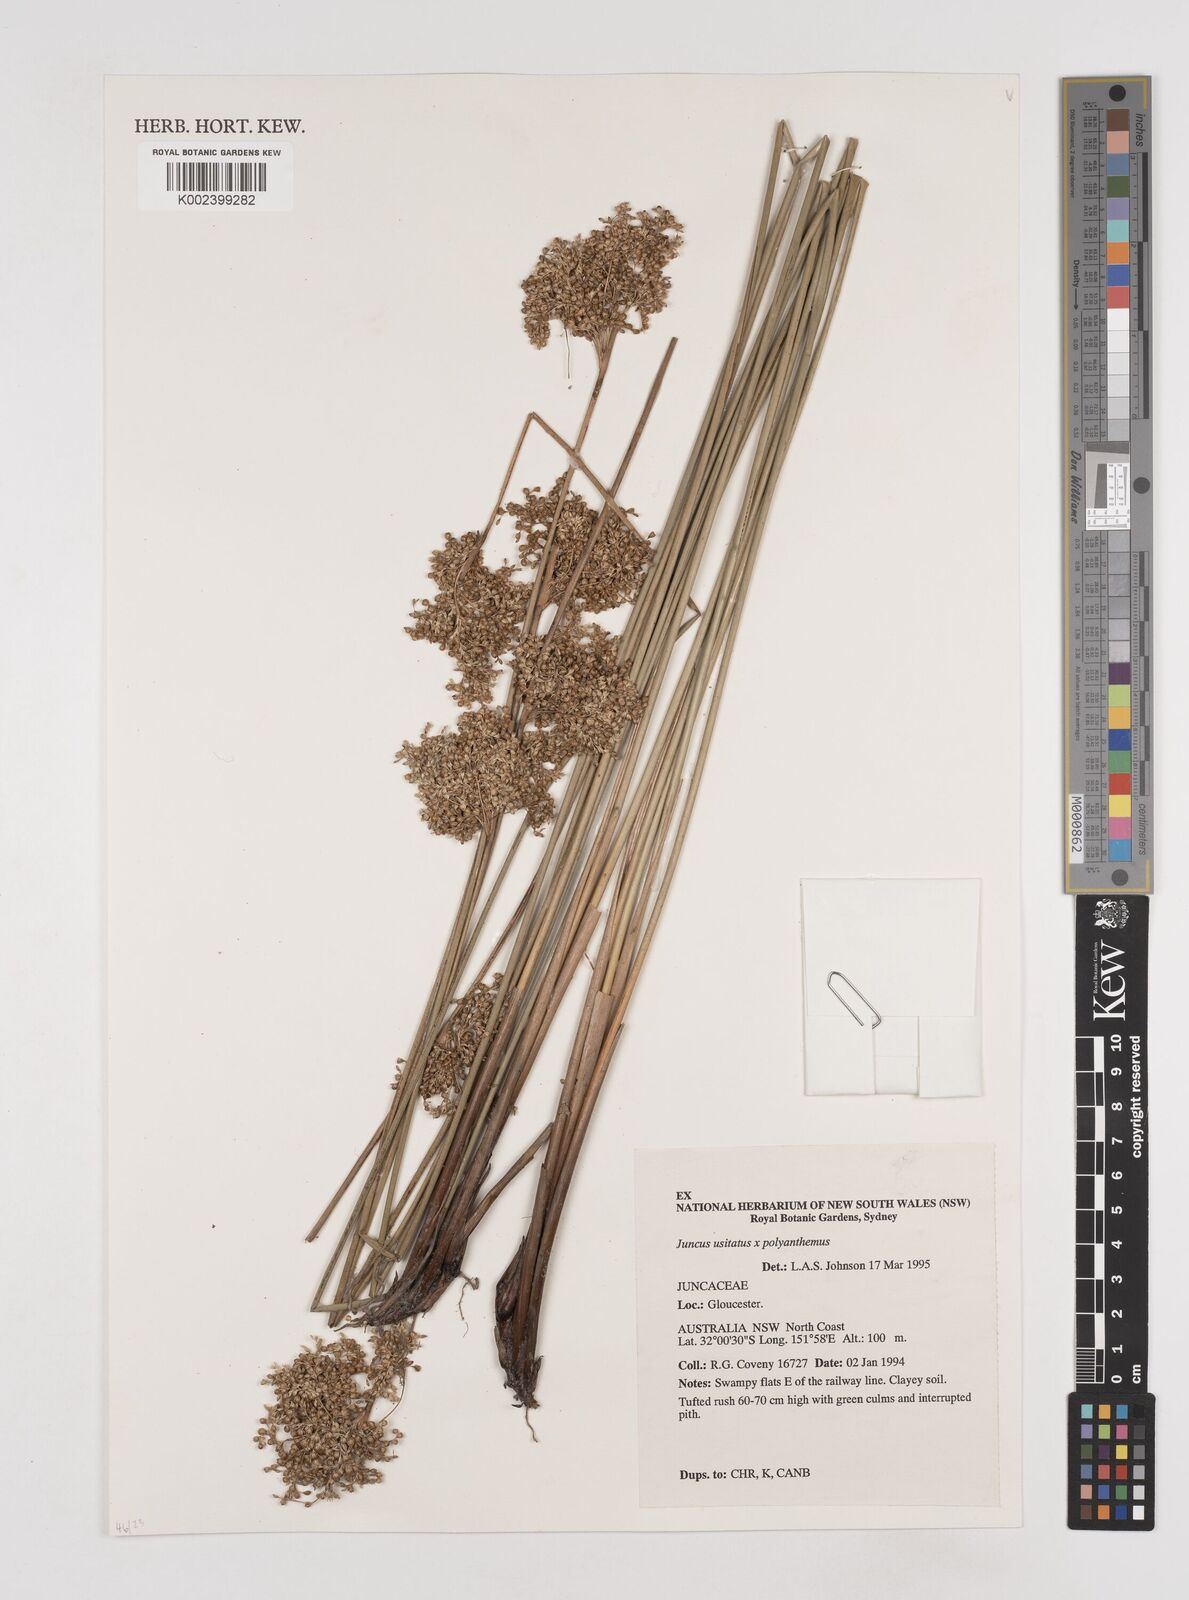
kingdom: Plantae
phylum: Tracheophyta
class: Liliopsida
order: Poales
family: Juncaceae
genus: Juncus
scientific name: Juncus usitatus
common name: Rush
